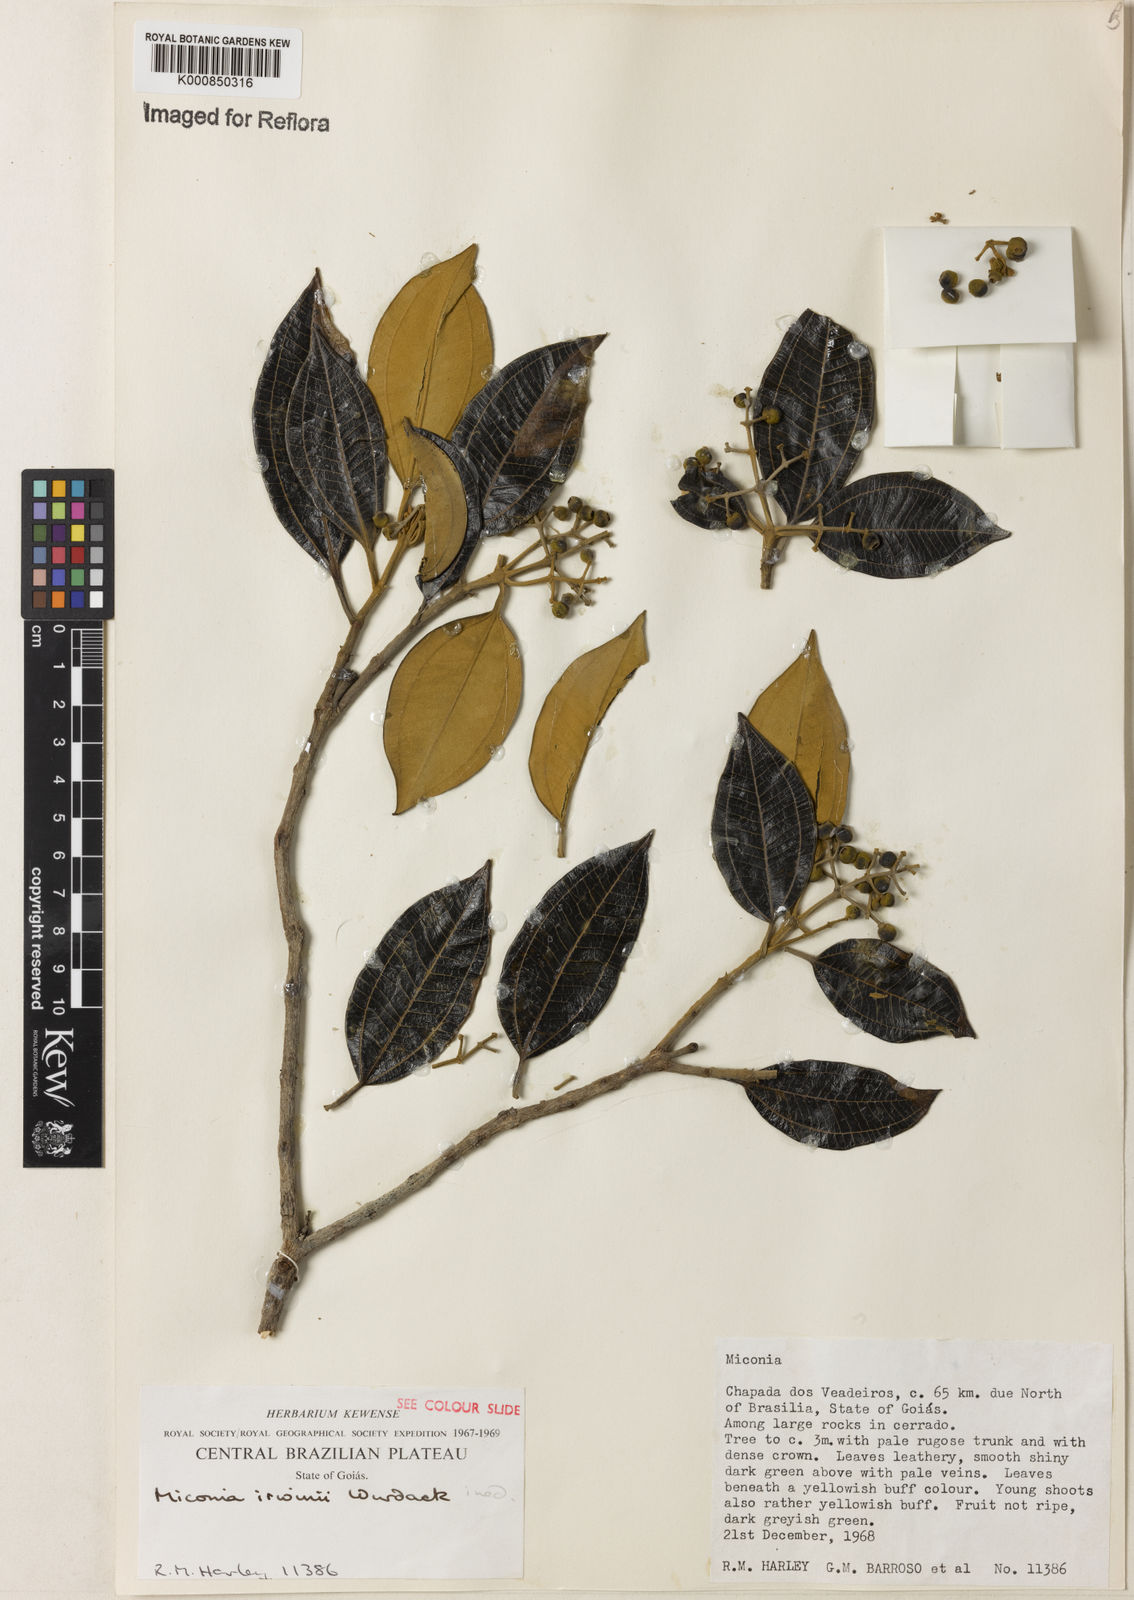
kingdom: Plantae
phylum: Tracheophyta
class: Magnoliopsida
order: Myrtales
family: Melastomataceae
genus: Miconia
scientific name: Miconia irwinii
